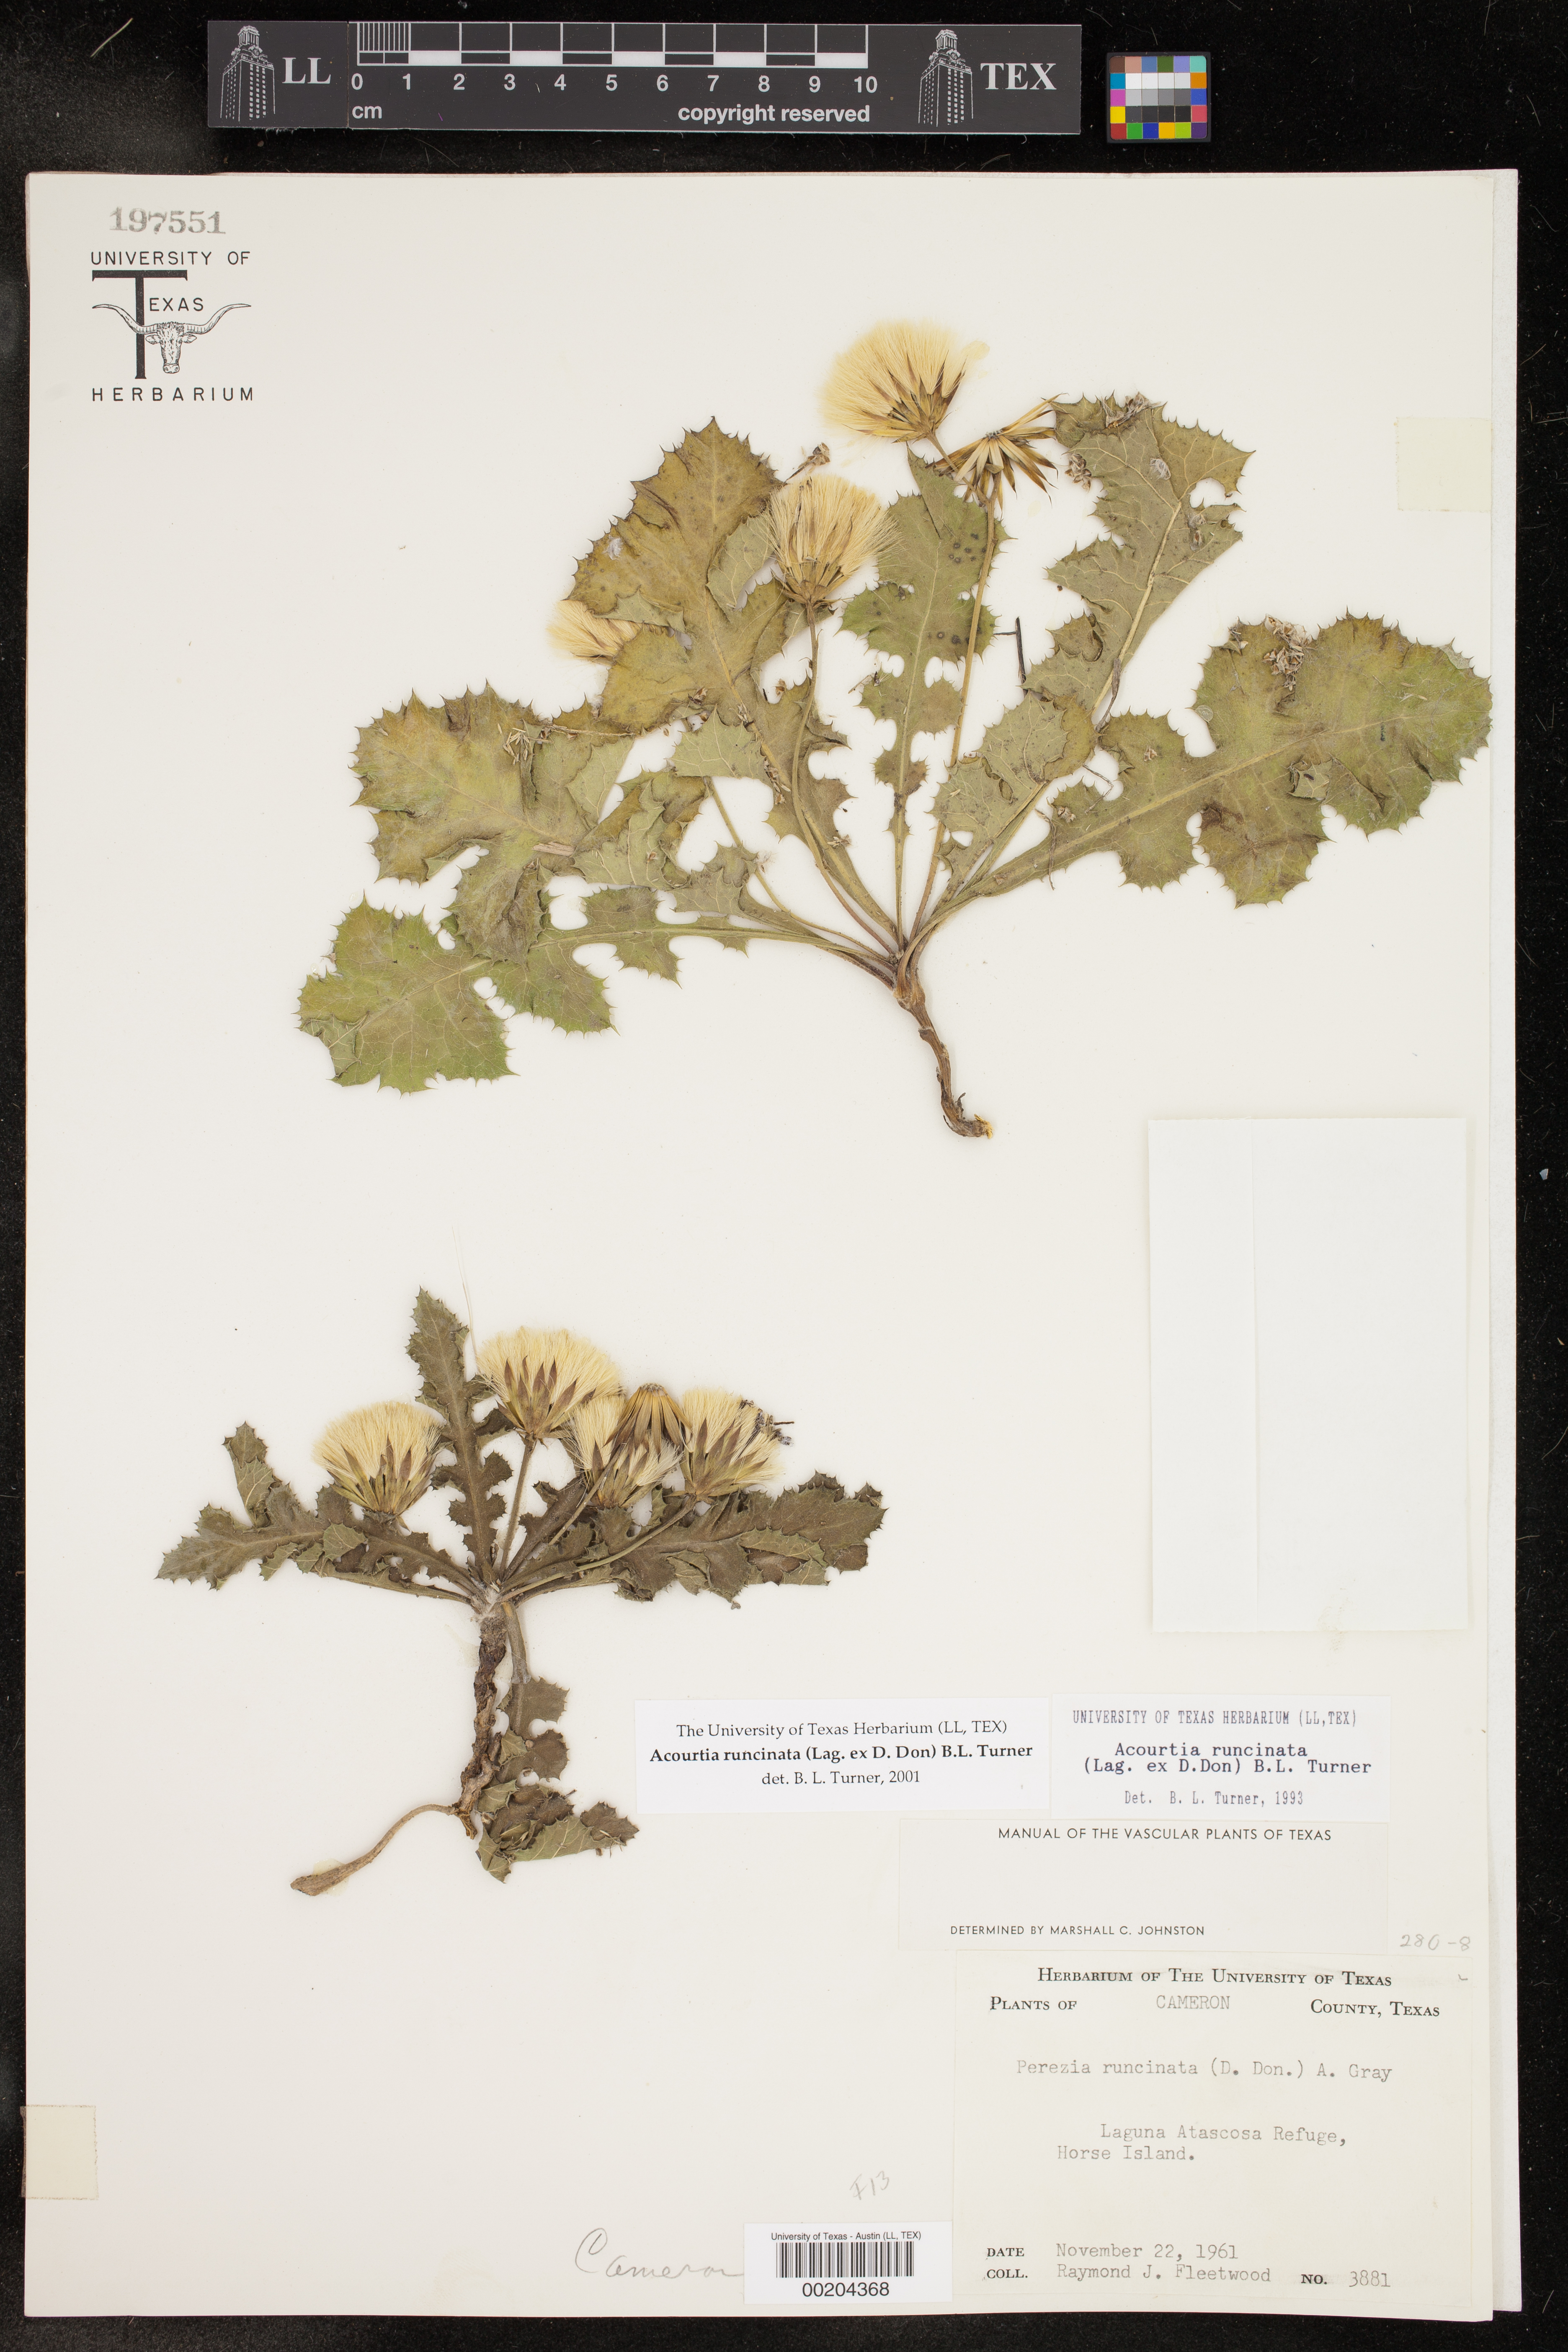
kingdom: Plantae
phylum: Tracheophyta
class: Magnoliopsida
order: Asterales
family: Asteraceae
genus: Acourtia
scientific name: Acourtia runcinata
